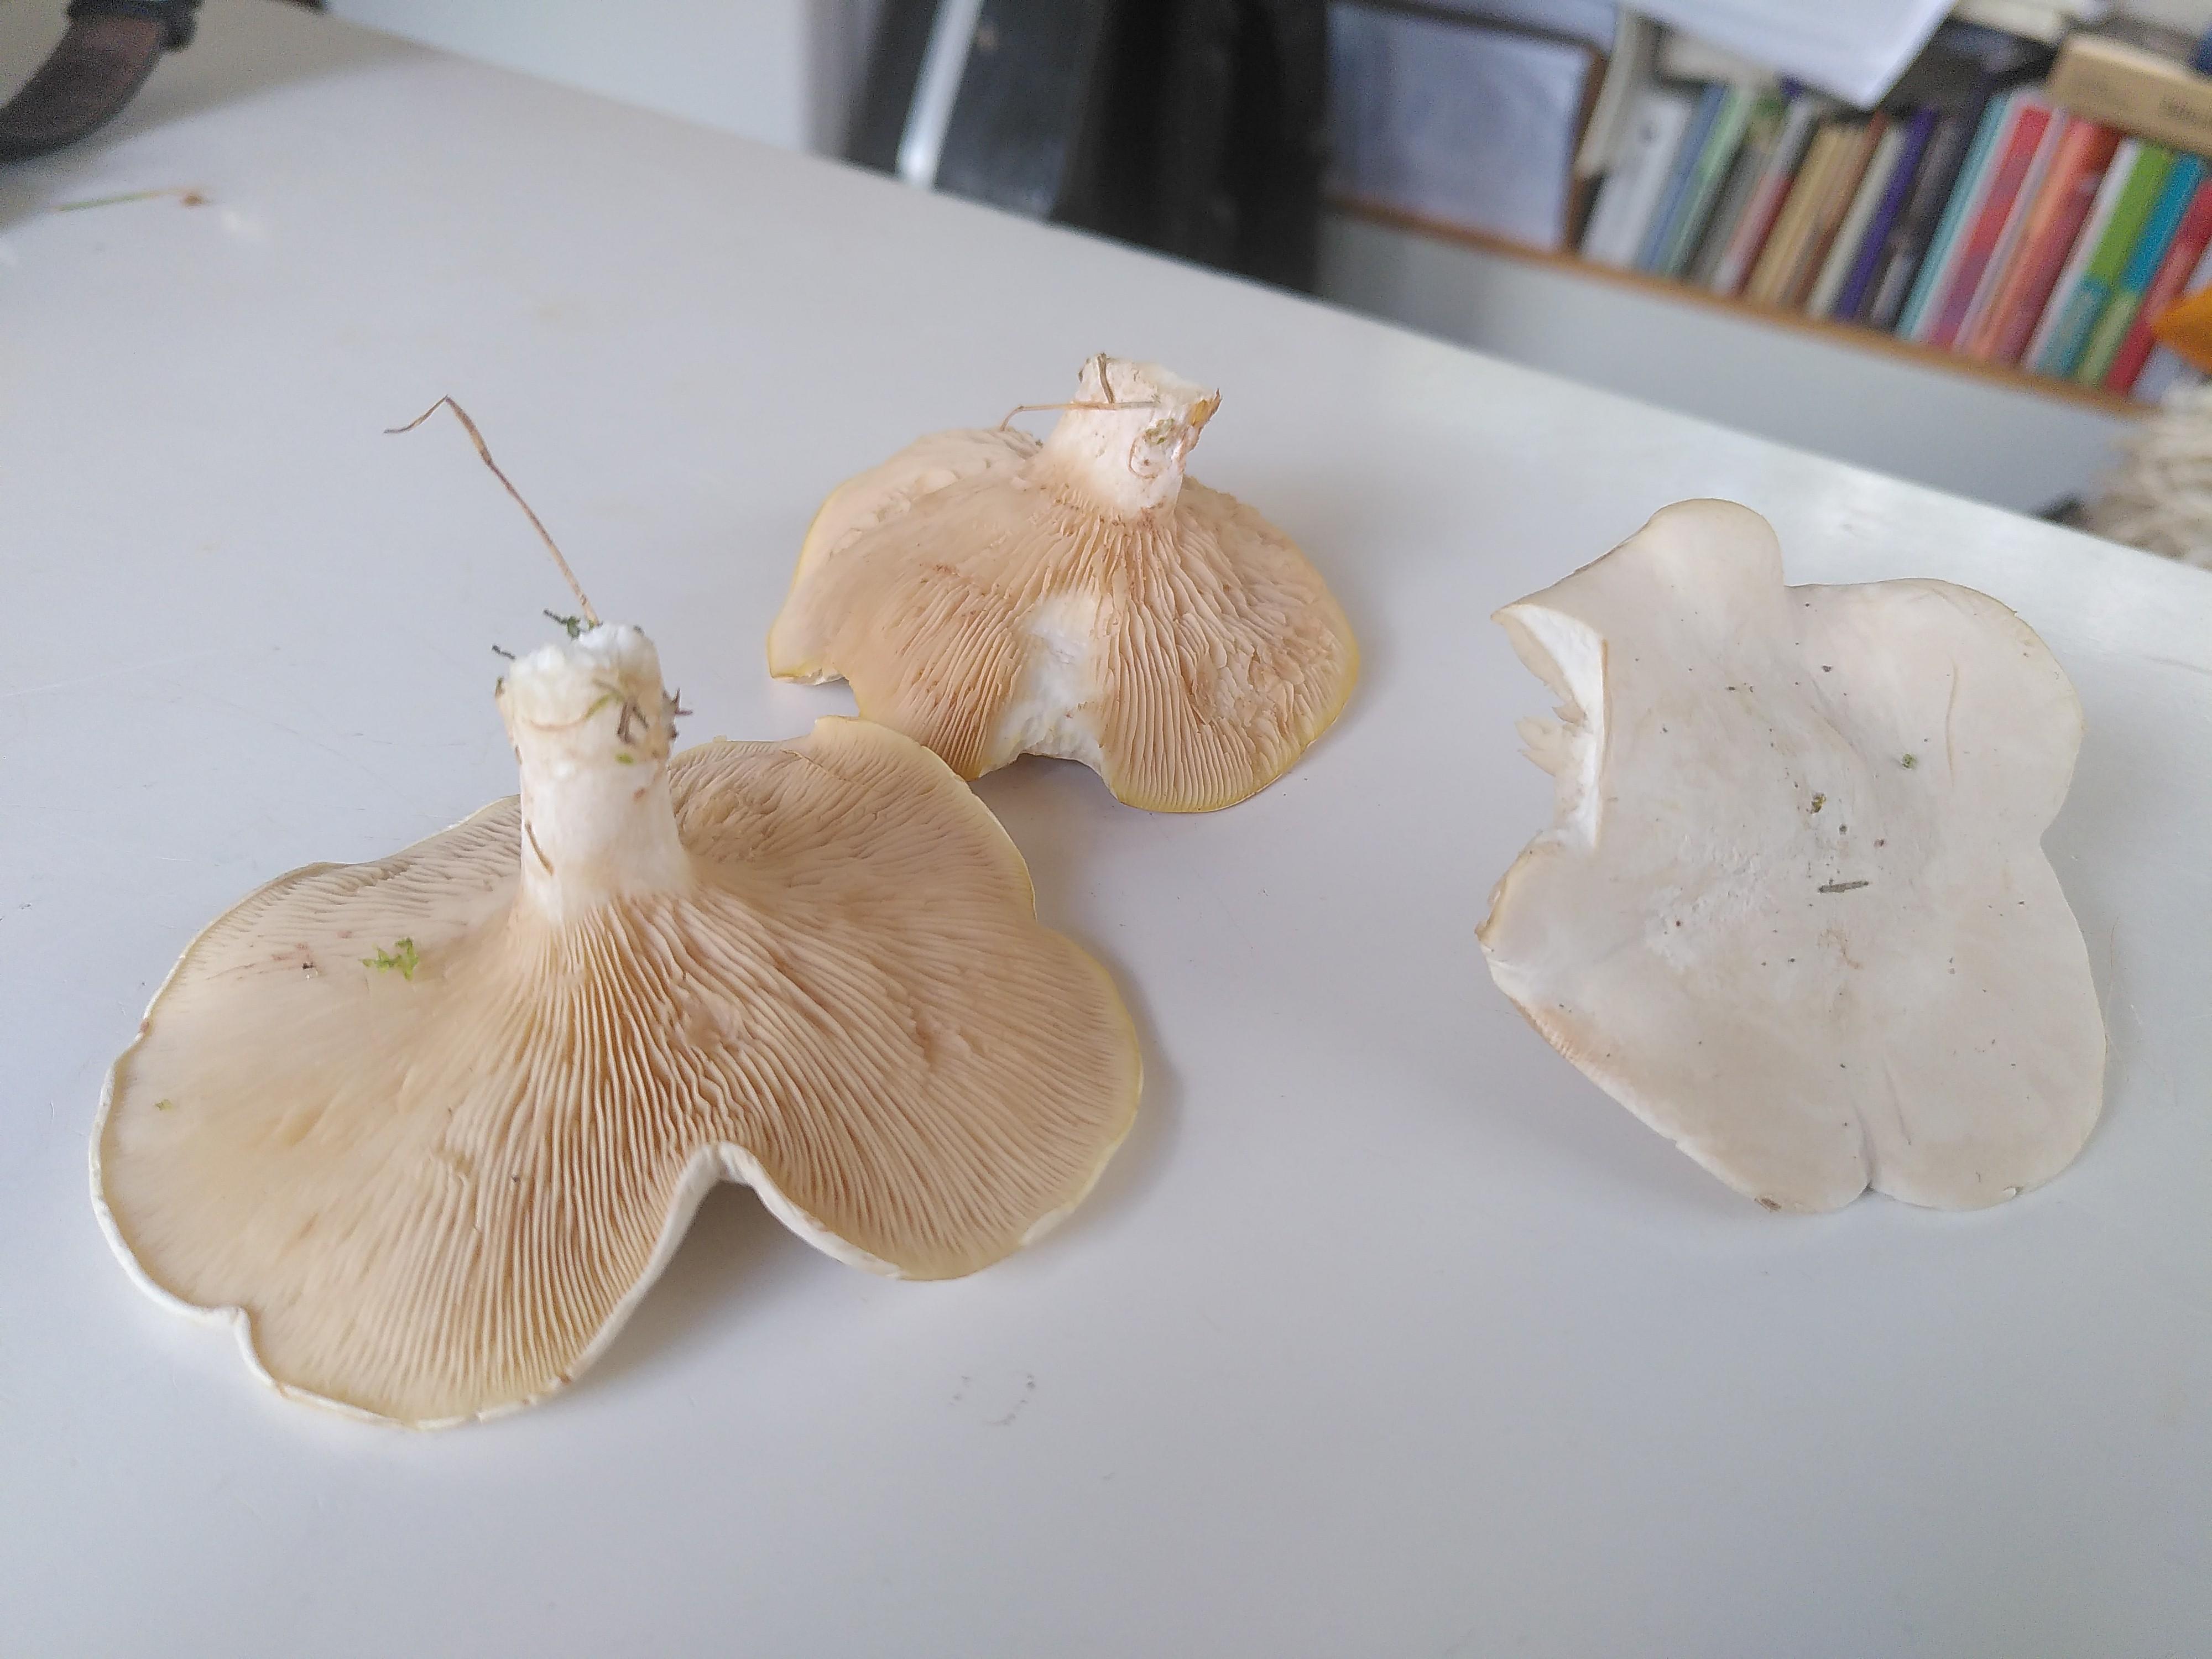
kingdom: Fungi
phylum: Basidiomycota
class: Agaricomycetes
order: Agaricales
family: Entolomataceae
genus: Clitopilus
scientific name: Clitopilus prunulus
